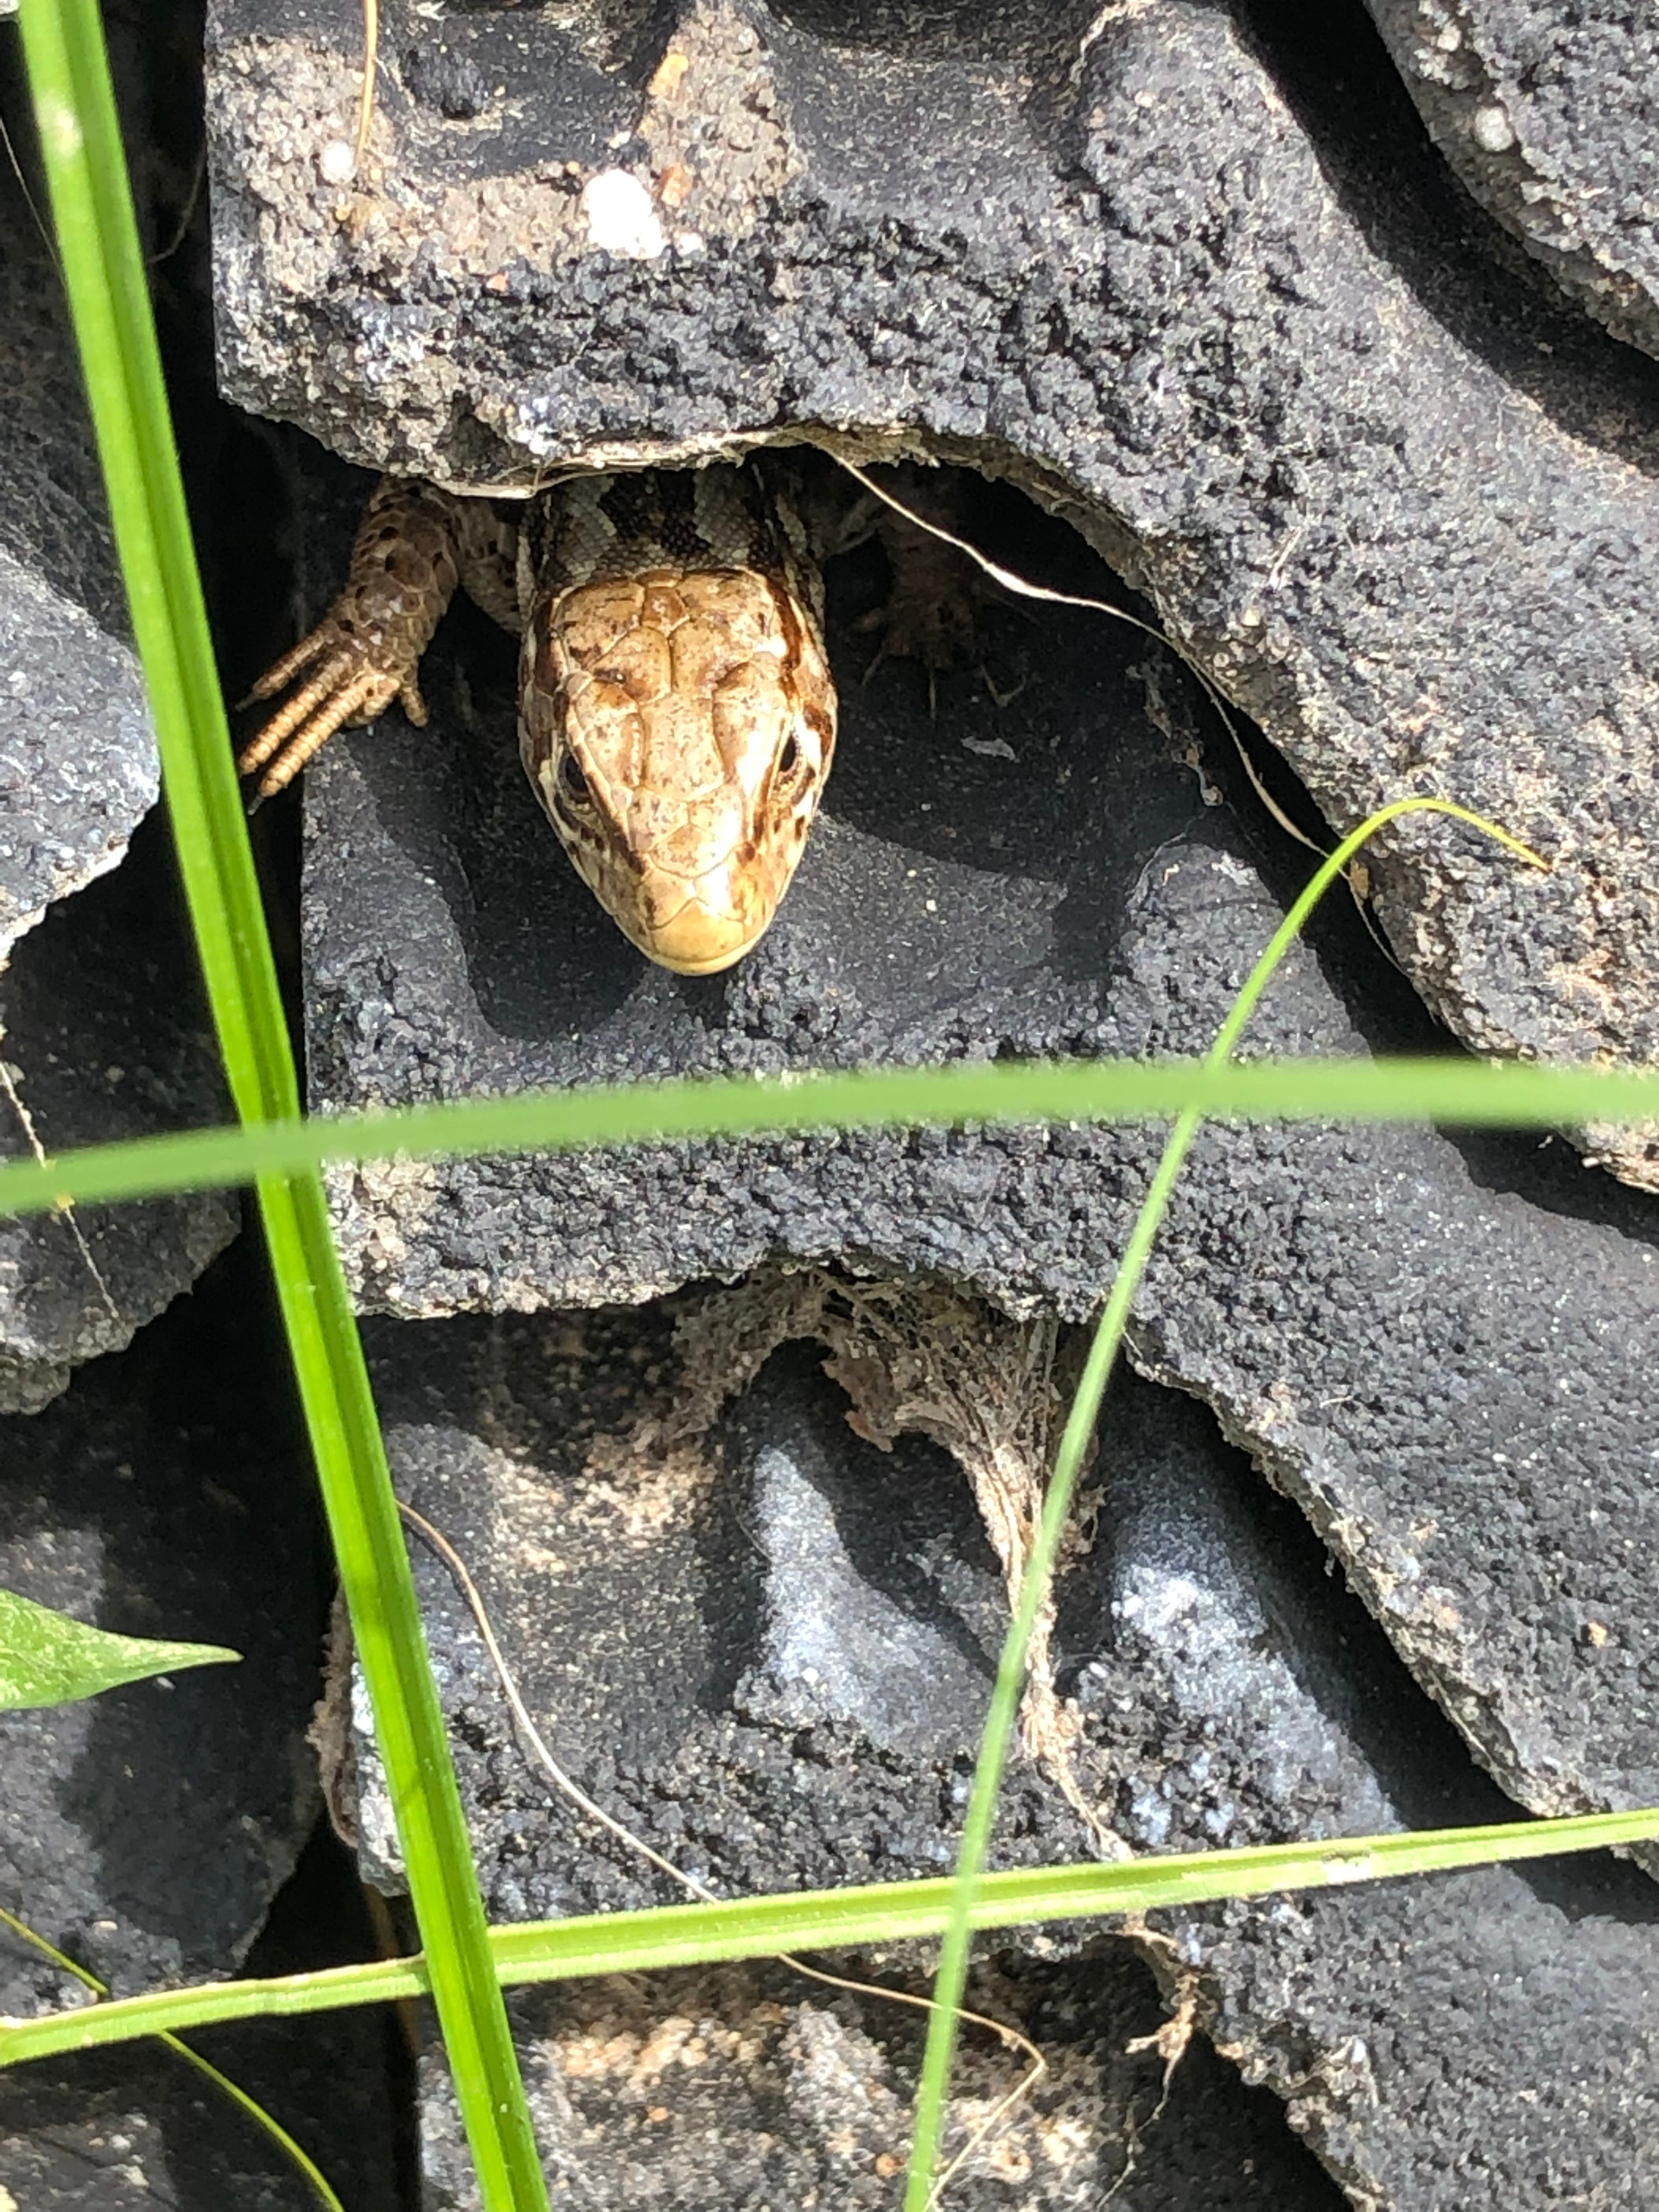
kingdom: Animalia
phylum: Chordata
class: Squamata
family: Lacertidae
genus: Lacerta
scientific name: Lacerta agilis
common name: Markfirben
